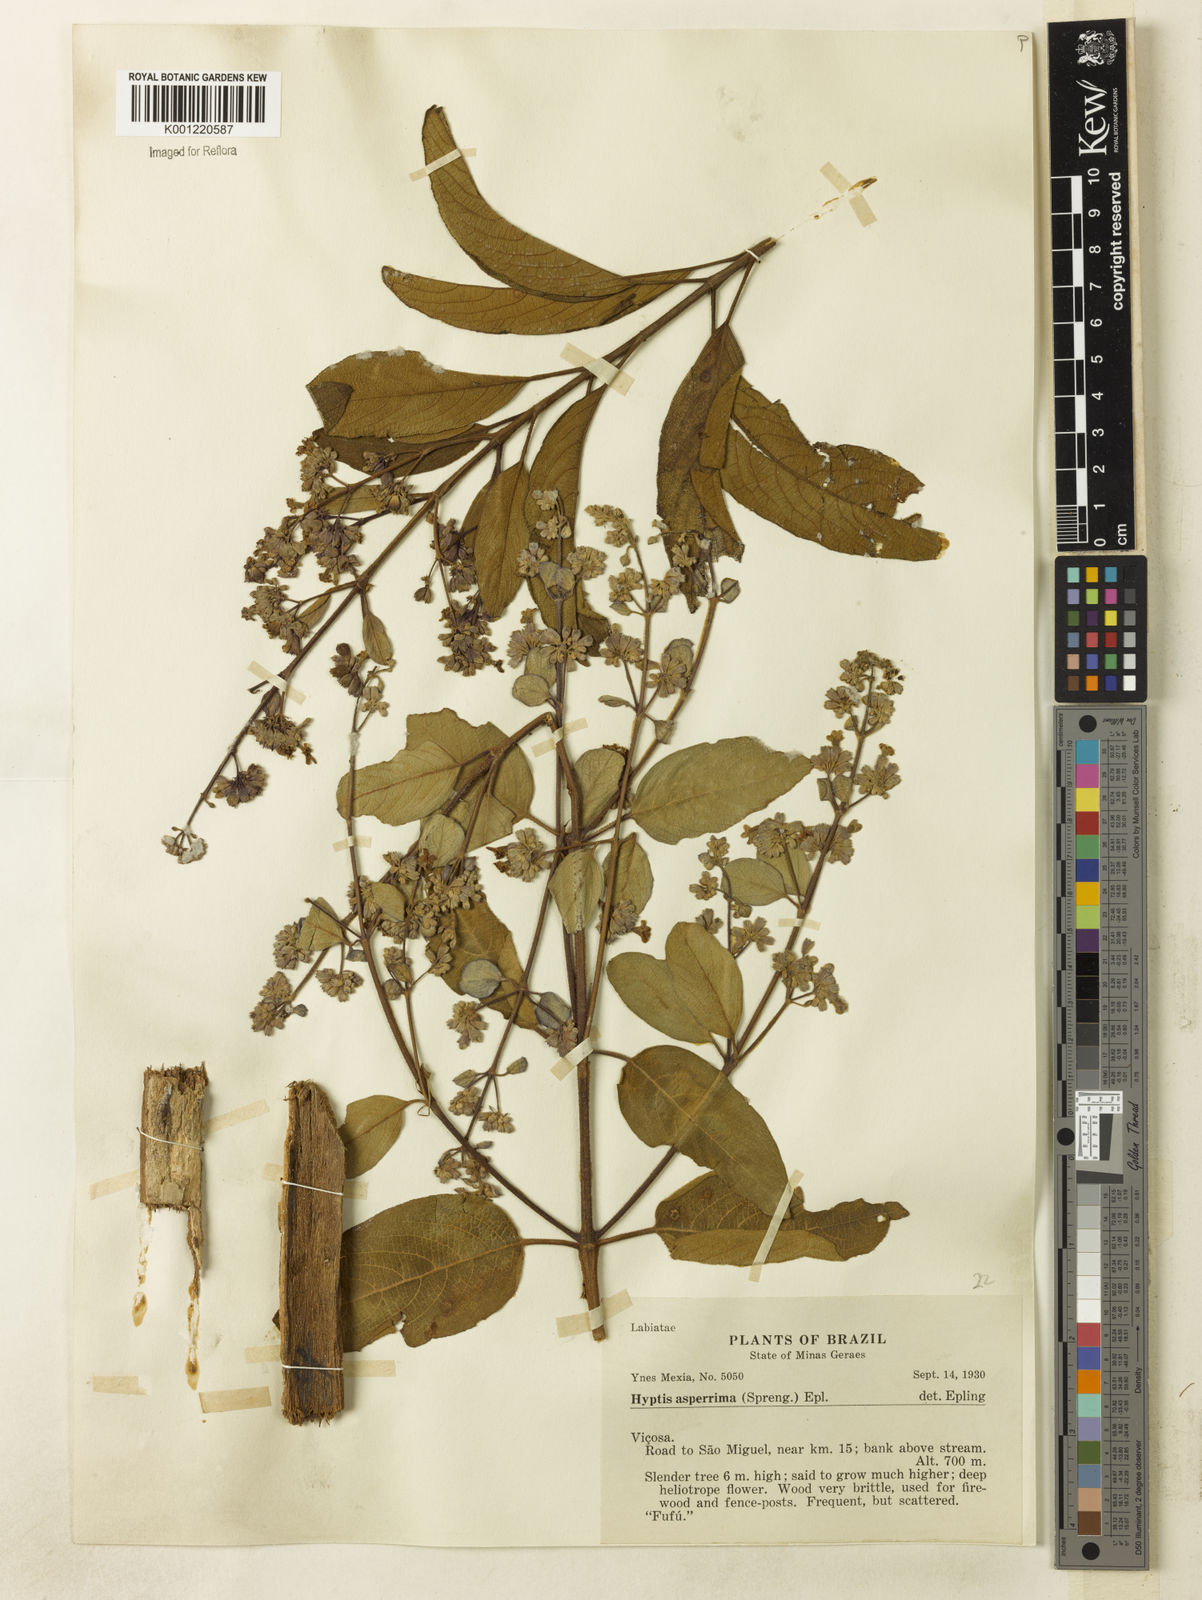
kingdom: Plantae
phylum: Tracheophyta
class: Magnoliopsida
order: Lamiales
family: Lamiaceae
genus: Hyptidendron
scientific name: Hyptidendron asperrimum
